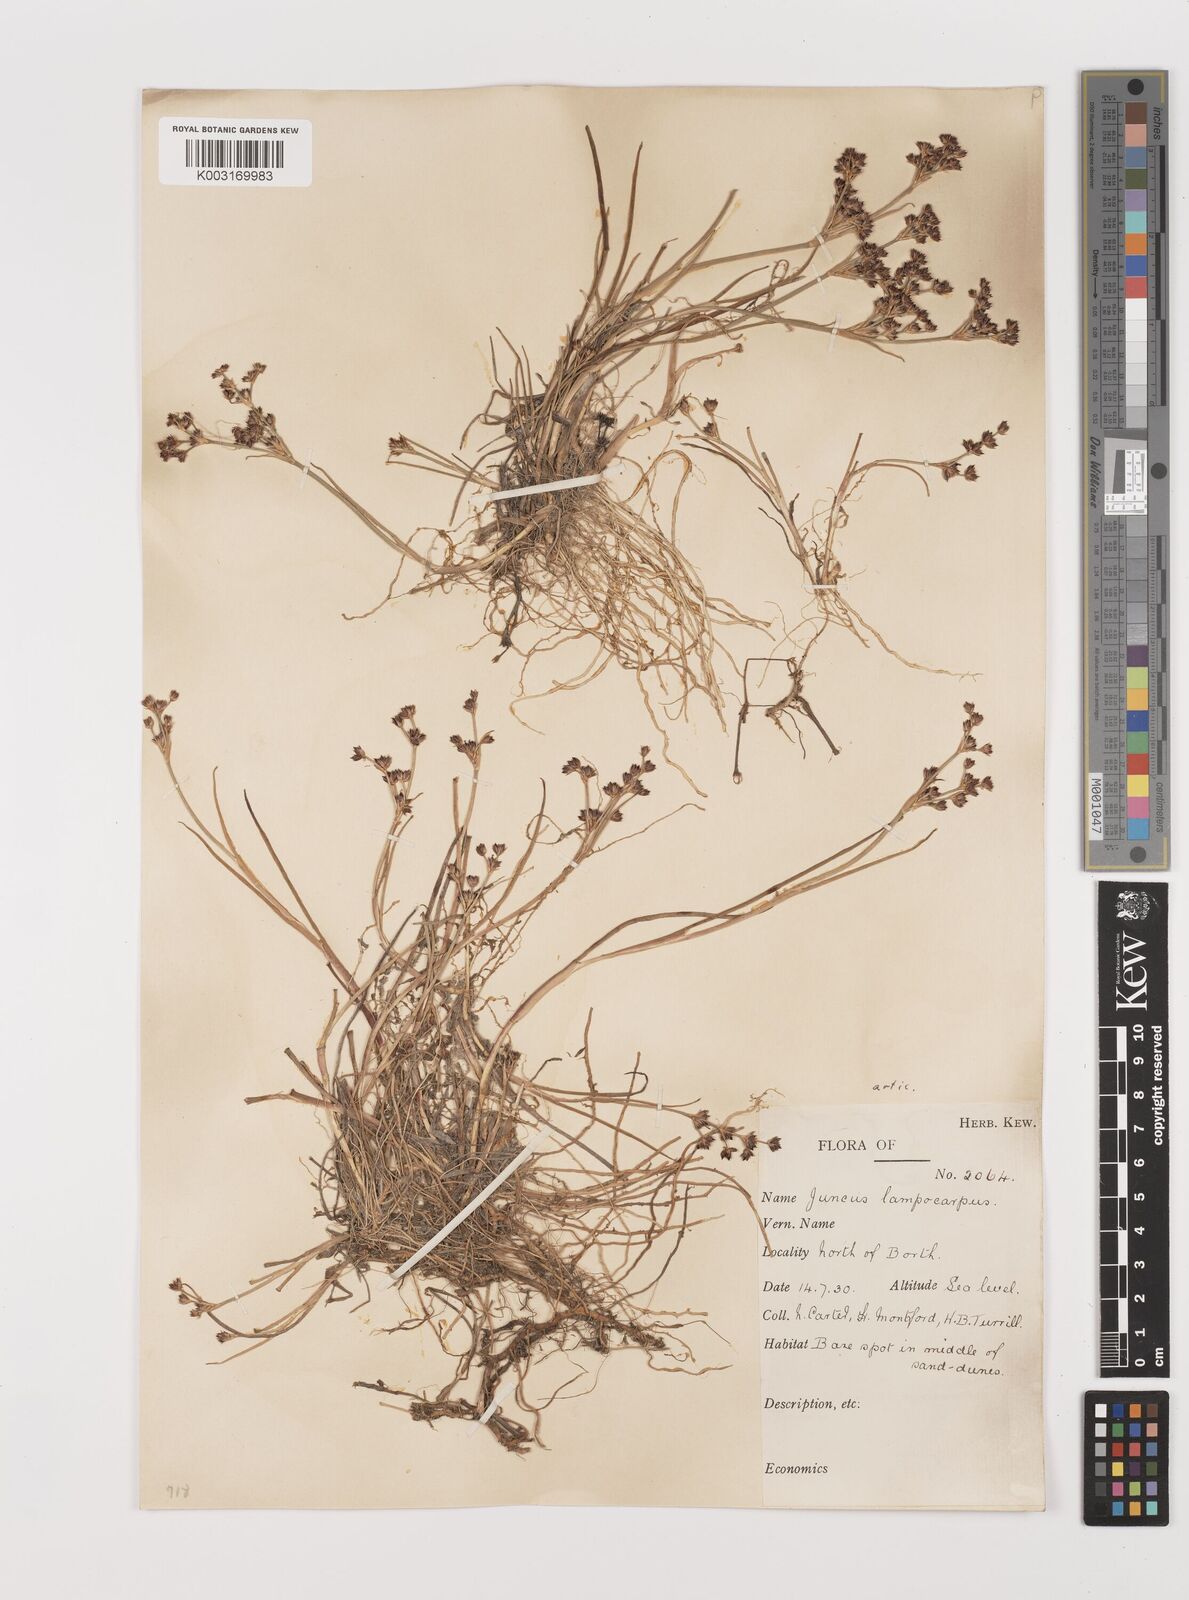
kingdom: Plantae
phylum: Tracheophyta
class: Liliopsida
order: Poales
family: Juncaceae
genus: Juncus
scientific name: Juncus articulatus
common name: Jointed rush
